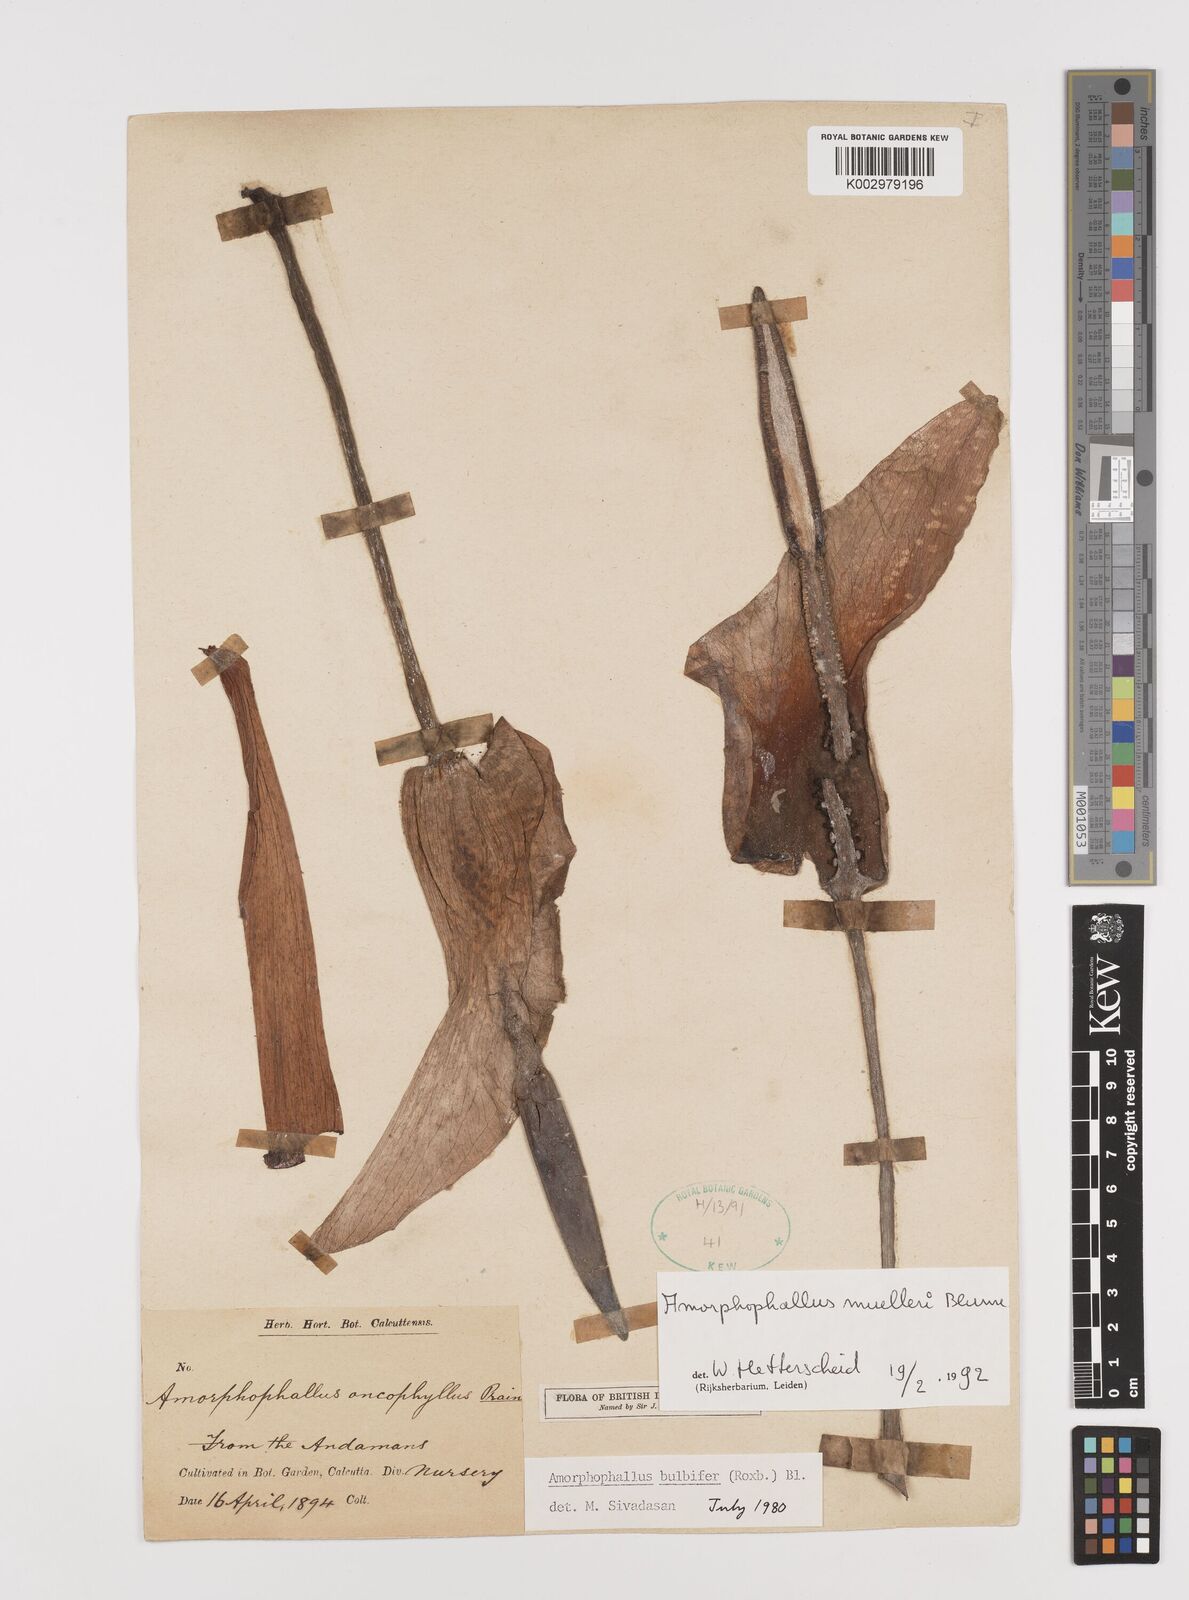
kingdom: Plantae
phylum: Tracheophyta
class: Liliopsida
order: Alismatales
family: Araceae
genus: Amorphophallus
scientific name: Amorphophallus muelleri
